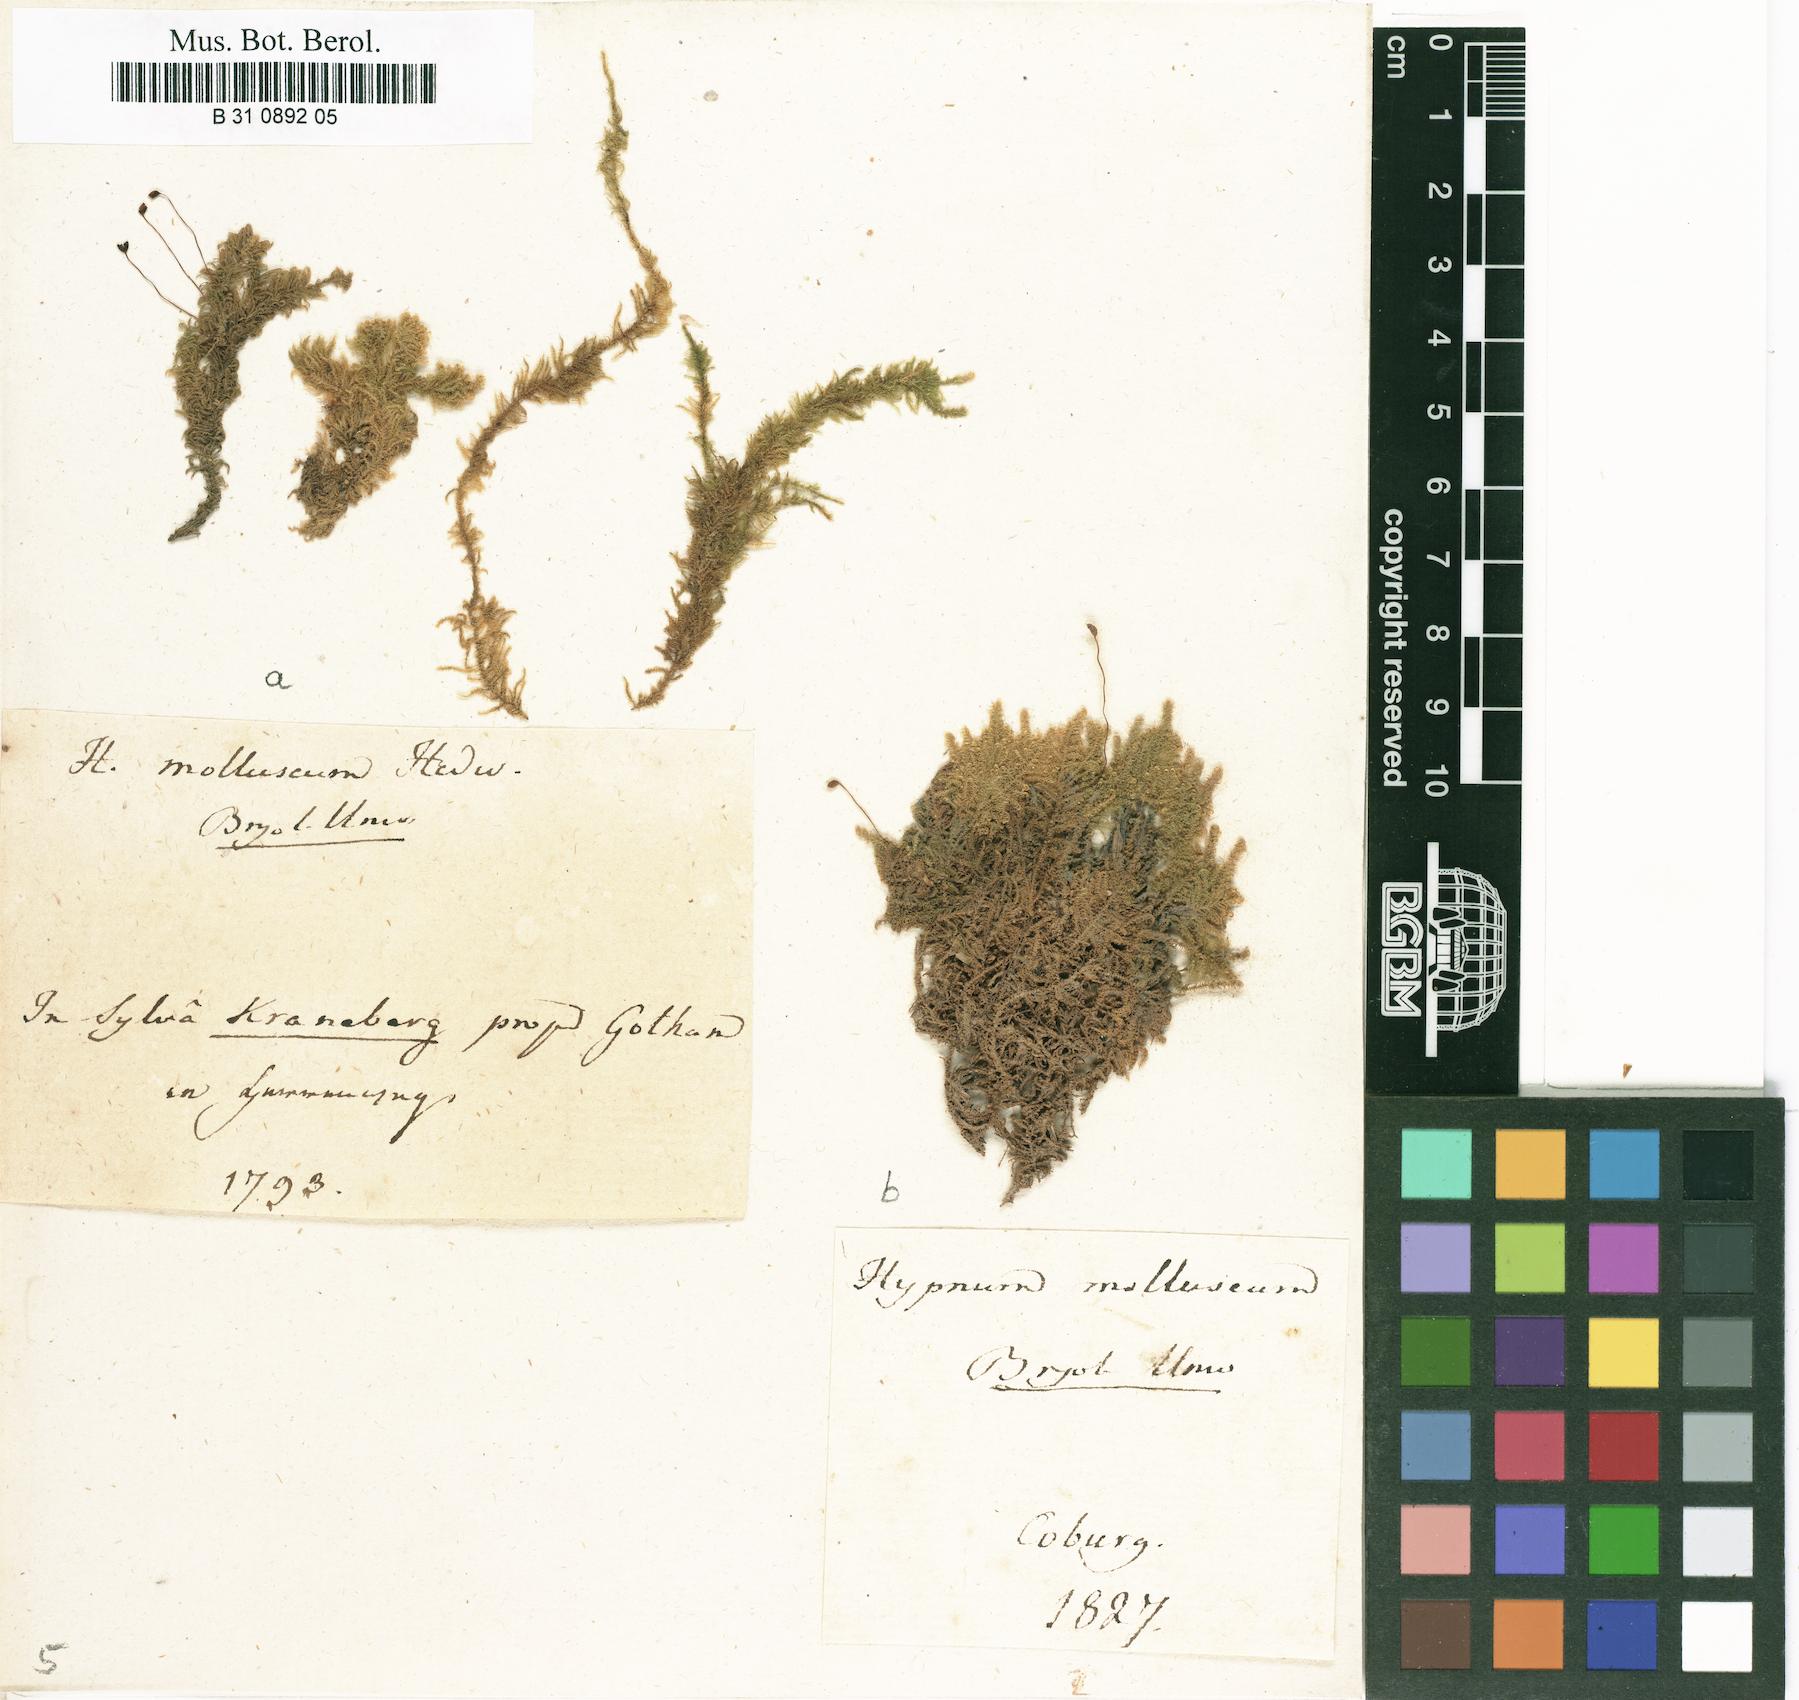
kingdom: Plantae
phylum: Bryophyta
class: Bryopsida
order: Hypnales
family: Myuriaceae
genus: Ctenidium
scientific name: Ctenidium molluscum
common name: Chalk comb-moss
